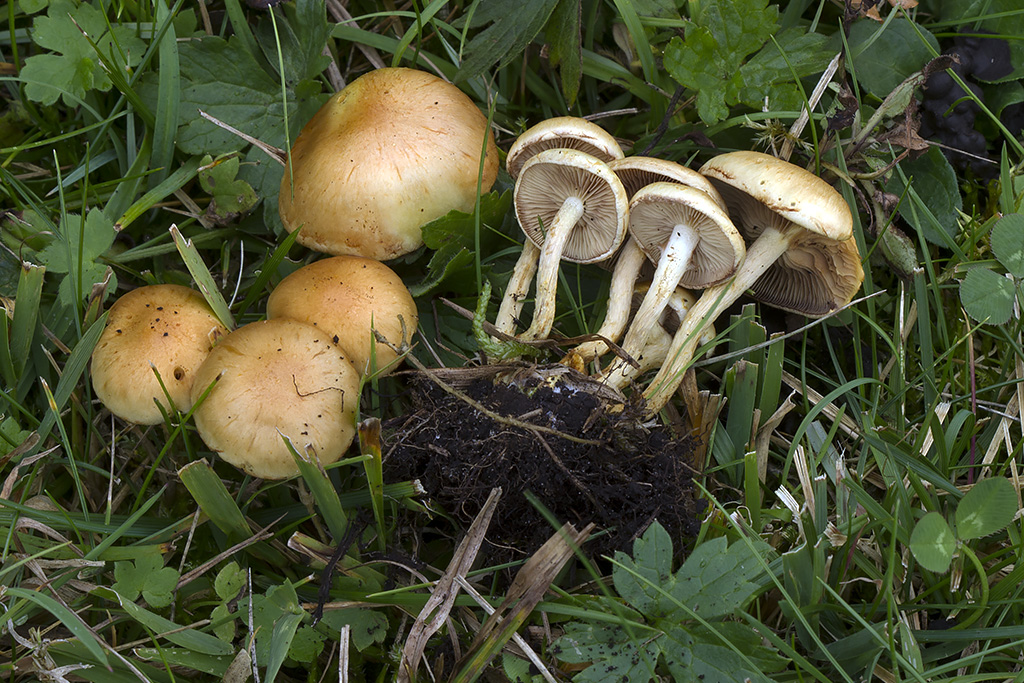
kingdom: Fungi
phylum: Basidiomycota
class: Agaricomycetes
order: Agaricales
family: Strophariaceae
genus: Pholiota
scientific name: Pholiota conissans
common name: pile-skælhat
